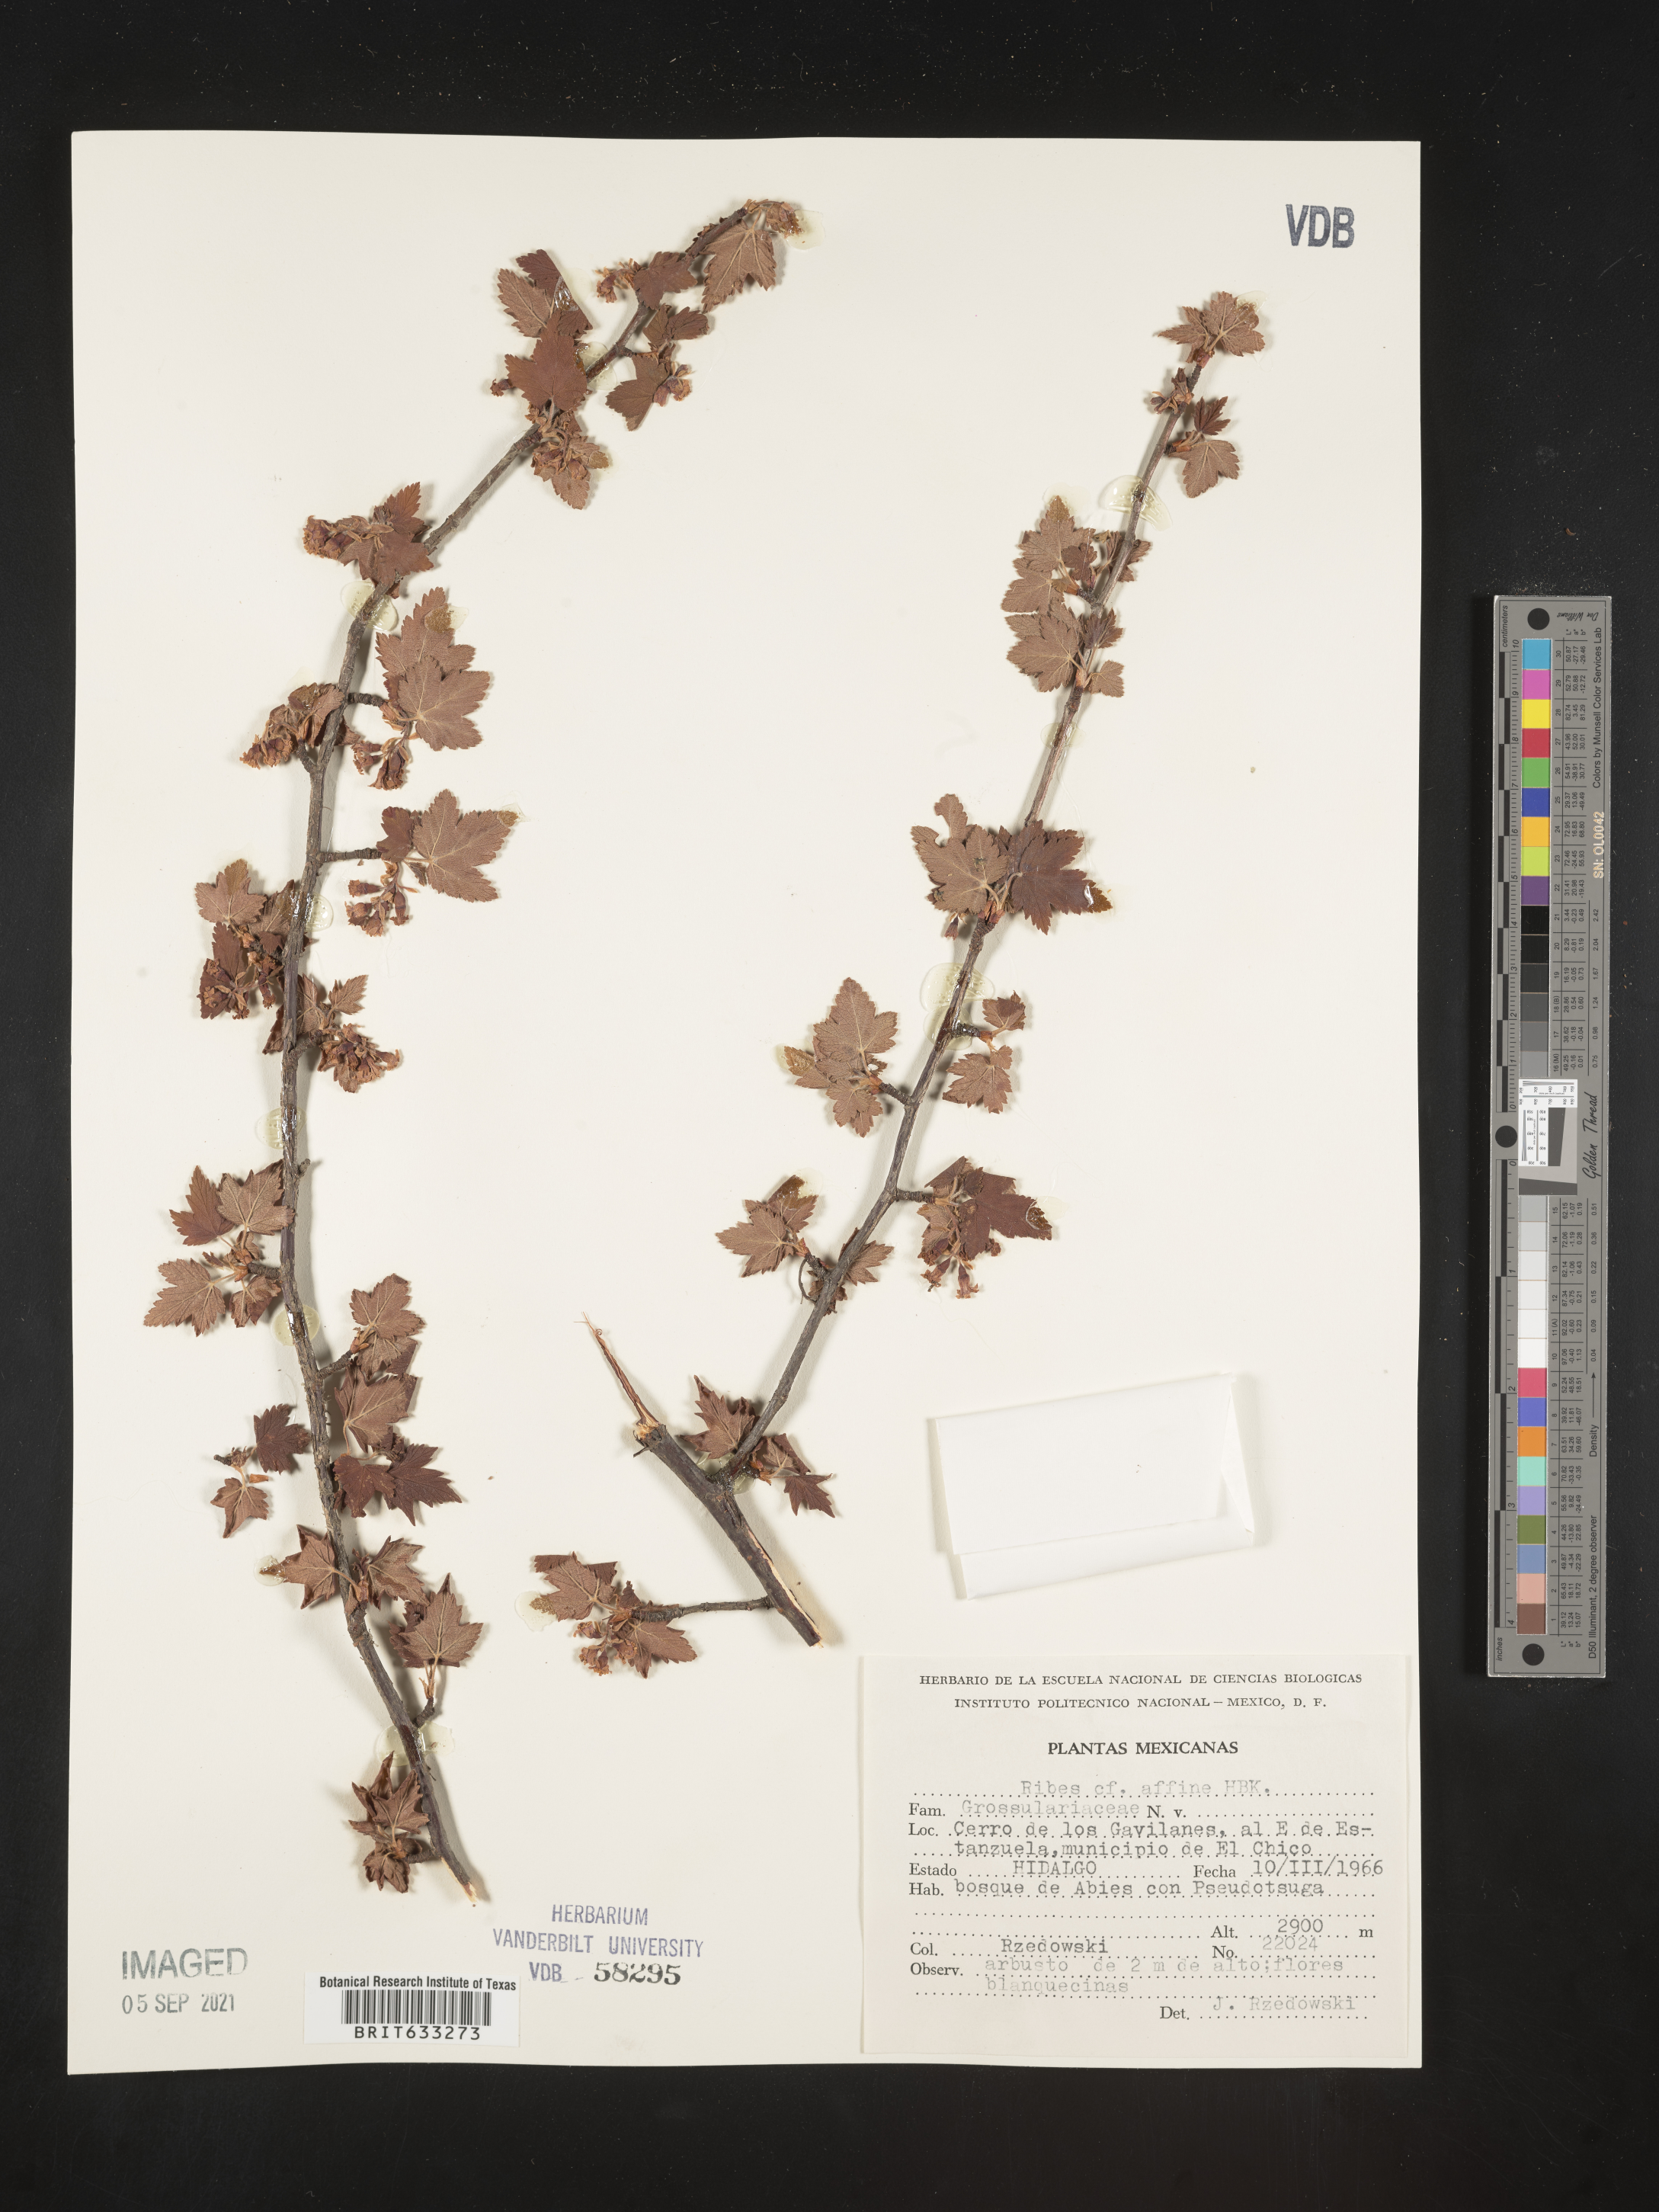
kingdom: Plantae
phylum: Tracheophyta
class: Magnoliopsida
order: Saxifragales
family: Grossulariaceae
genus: Ribes
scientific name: Ribes
